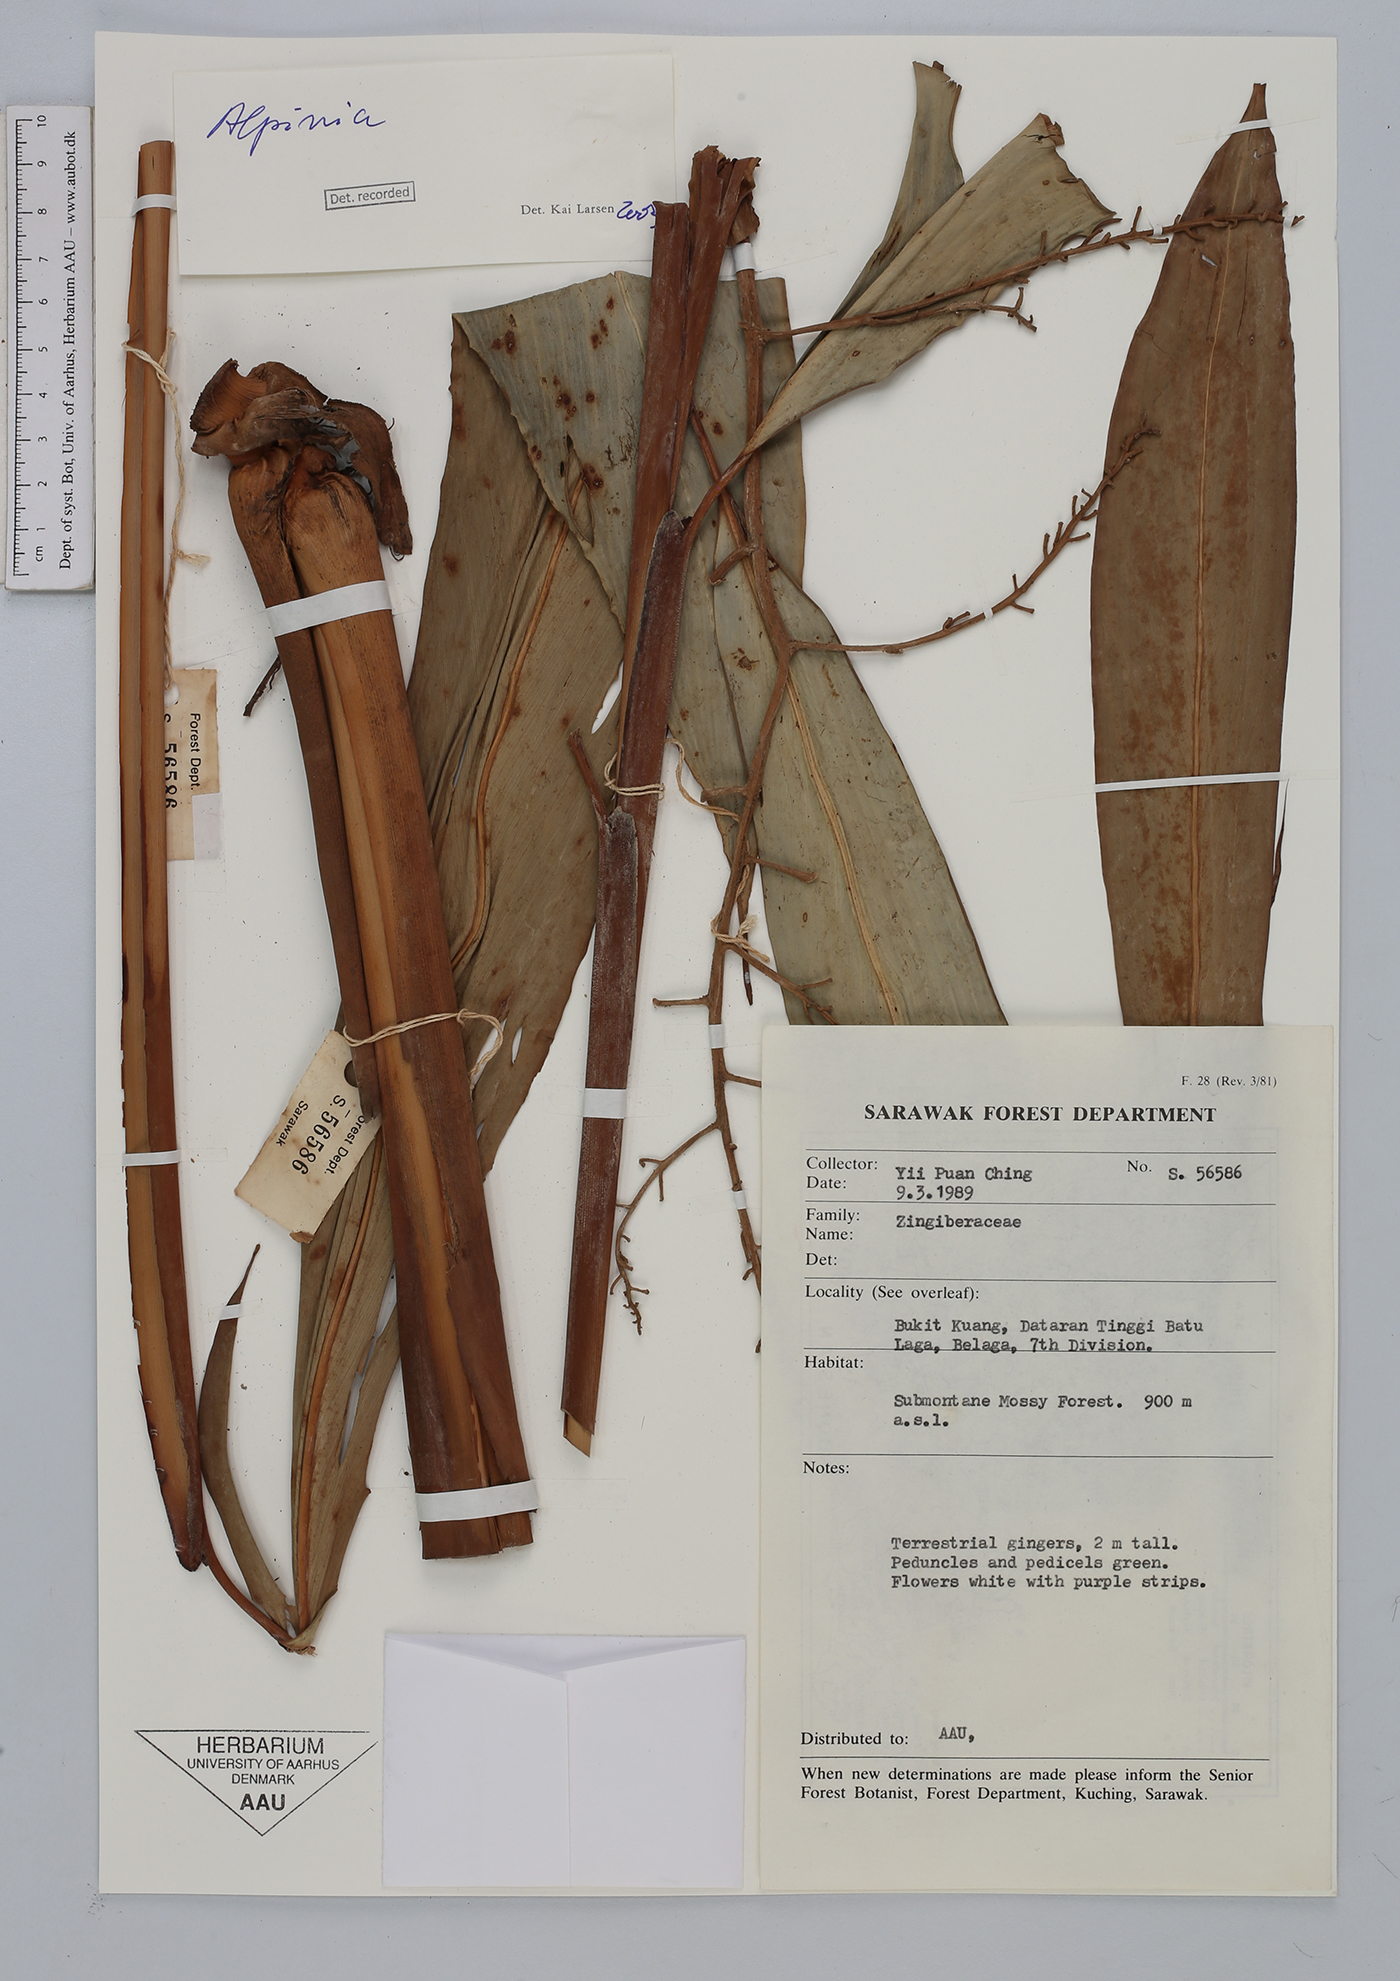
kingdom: Plantae
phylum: Tracheophyta
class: Liliopsida
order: Zingiberales
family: Zingiberaceae
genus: Alpinia
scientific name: Alpinia
